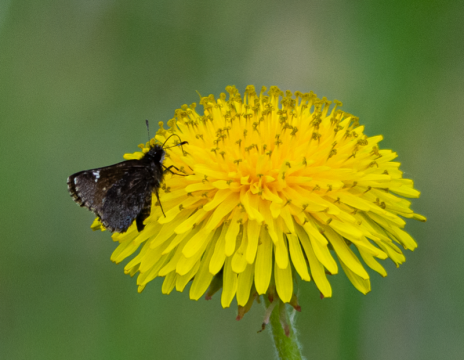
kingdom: Animalia
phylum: Arthropoda
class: Insecta
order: Lepidoptera
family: Hesperiidae
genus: Mastor
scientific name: Mastor vialis
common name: Common Roadside-Skipper
